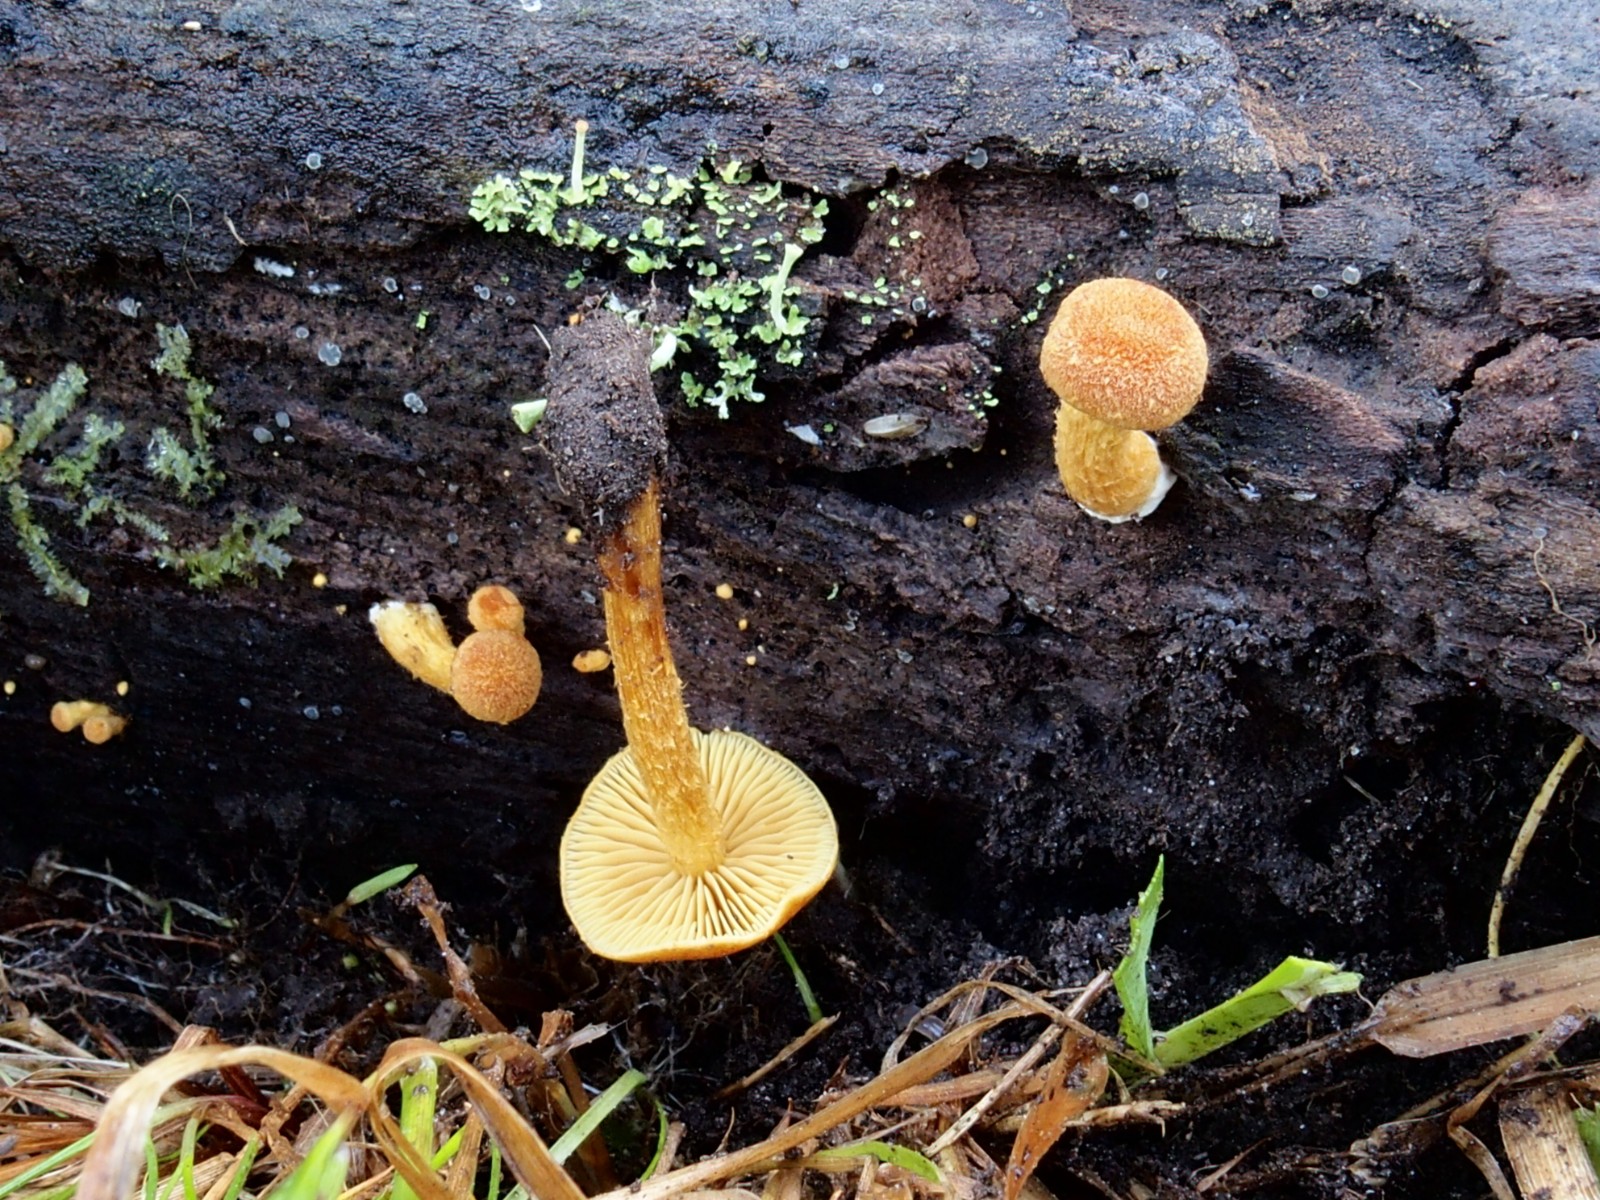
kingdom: Fungi
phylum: Basidiomycota
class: Agaricomycetes
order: Agaricales
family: Tubariaceae
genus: Flammulaster
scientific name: Flammulaster limulatus
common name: gylden grynskælhat
